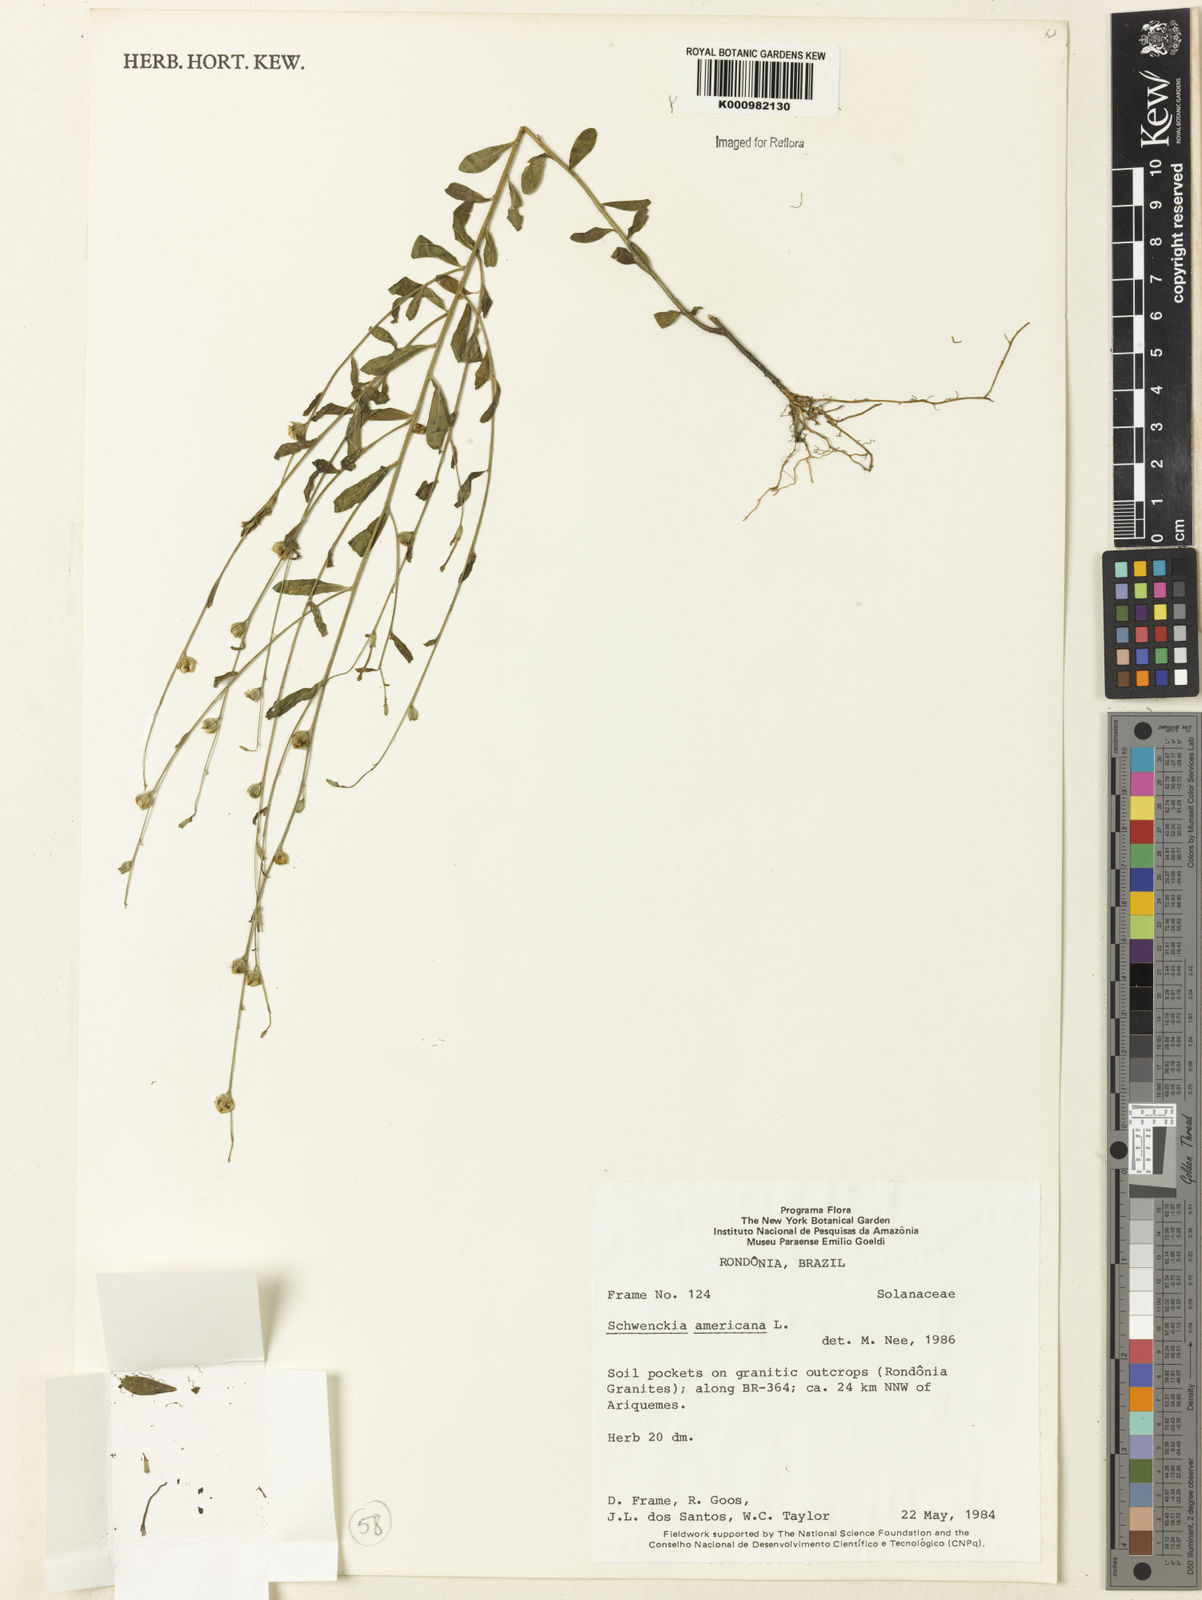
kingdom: Plantae
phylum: Tracheophyta
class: Magnoliopsida
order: Solanales
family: Solanaceae
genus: Schwenckia
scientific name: Schwenckia americana
